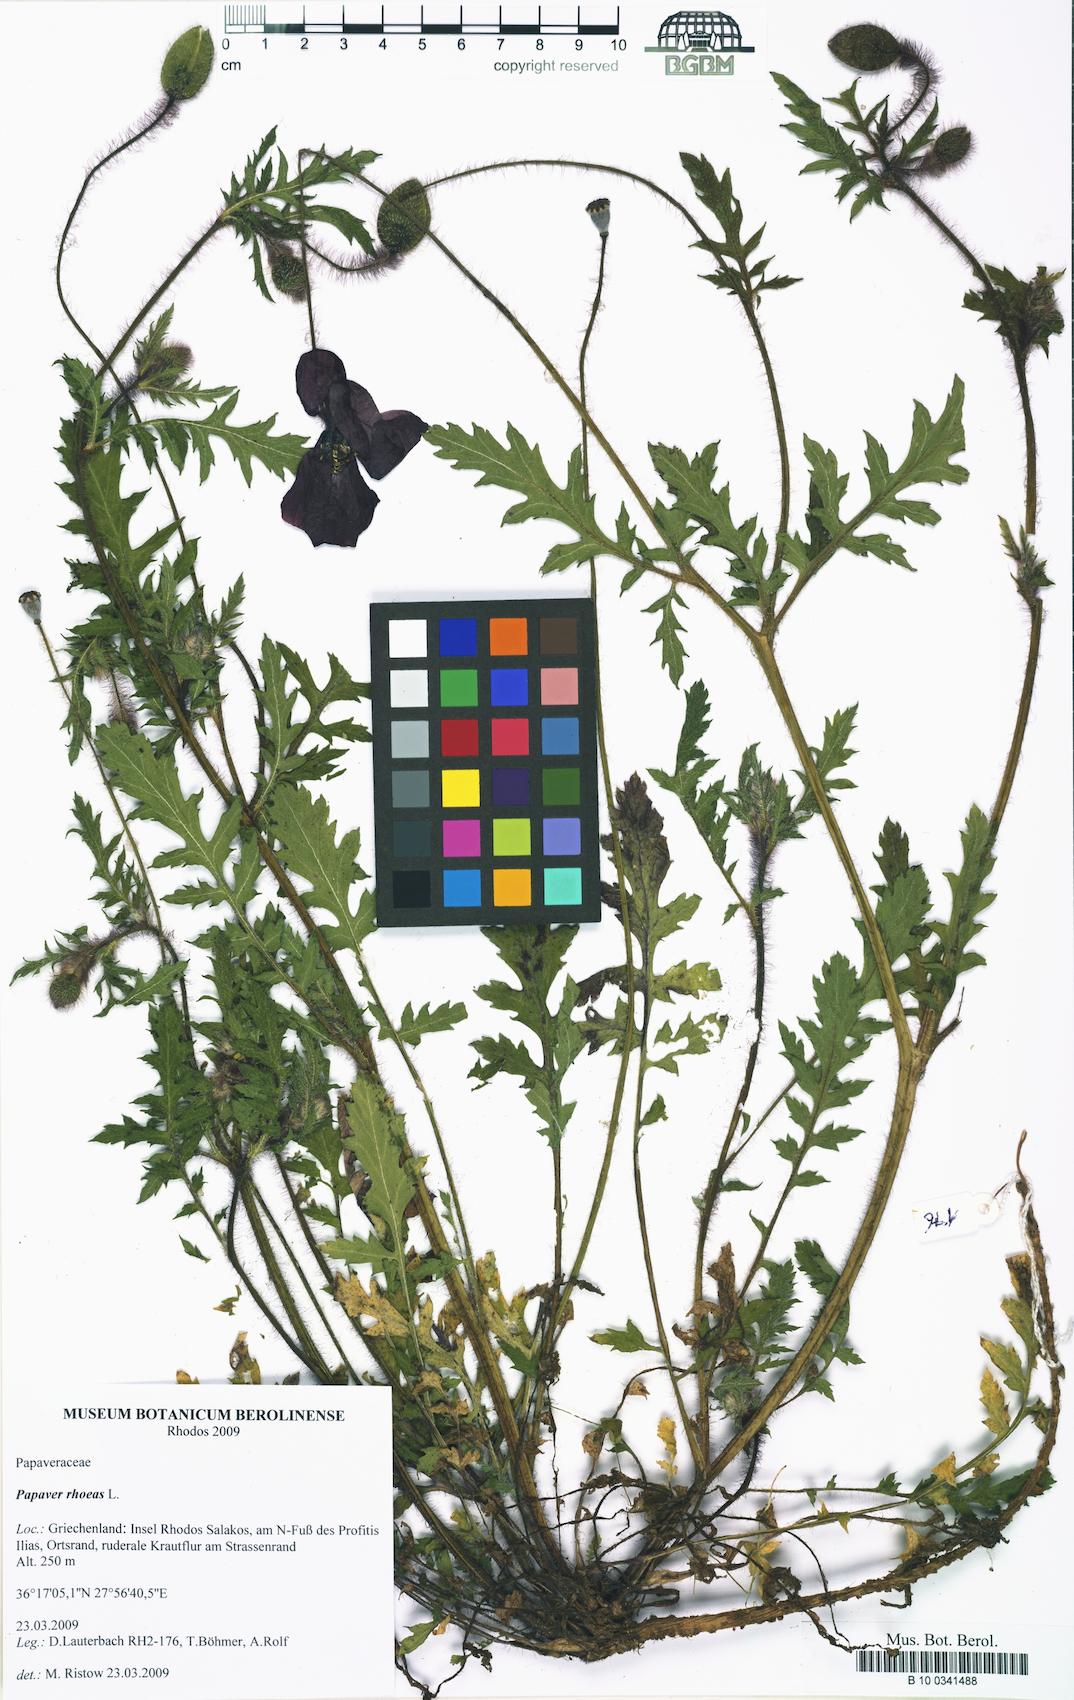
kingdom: Plantae
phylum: Tracheophyta
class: Magnoliopsida
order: Ranunculales
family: Papaveraceae
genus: Papaver
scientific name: Papaver rhoeas
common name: Corn poppy
